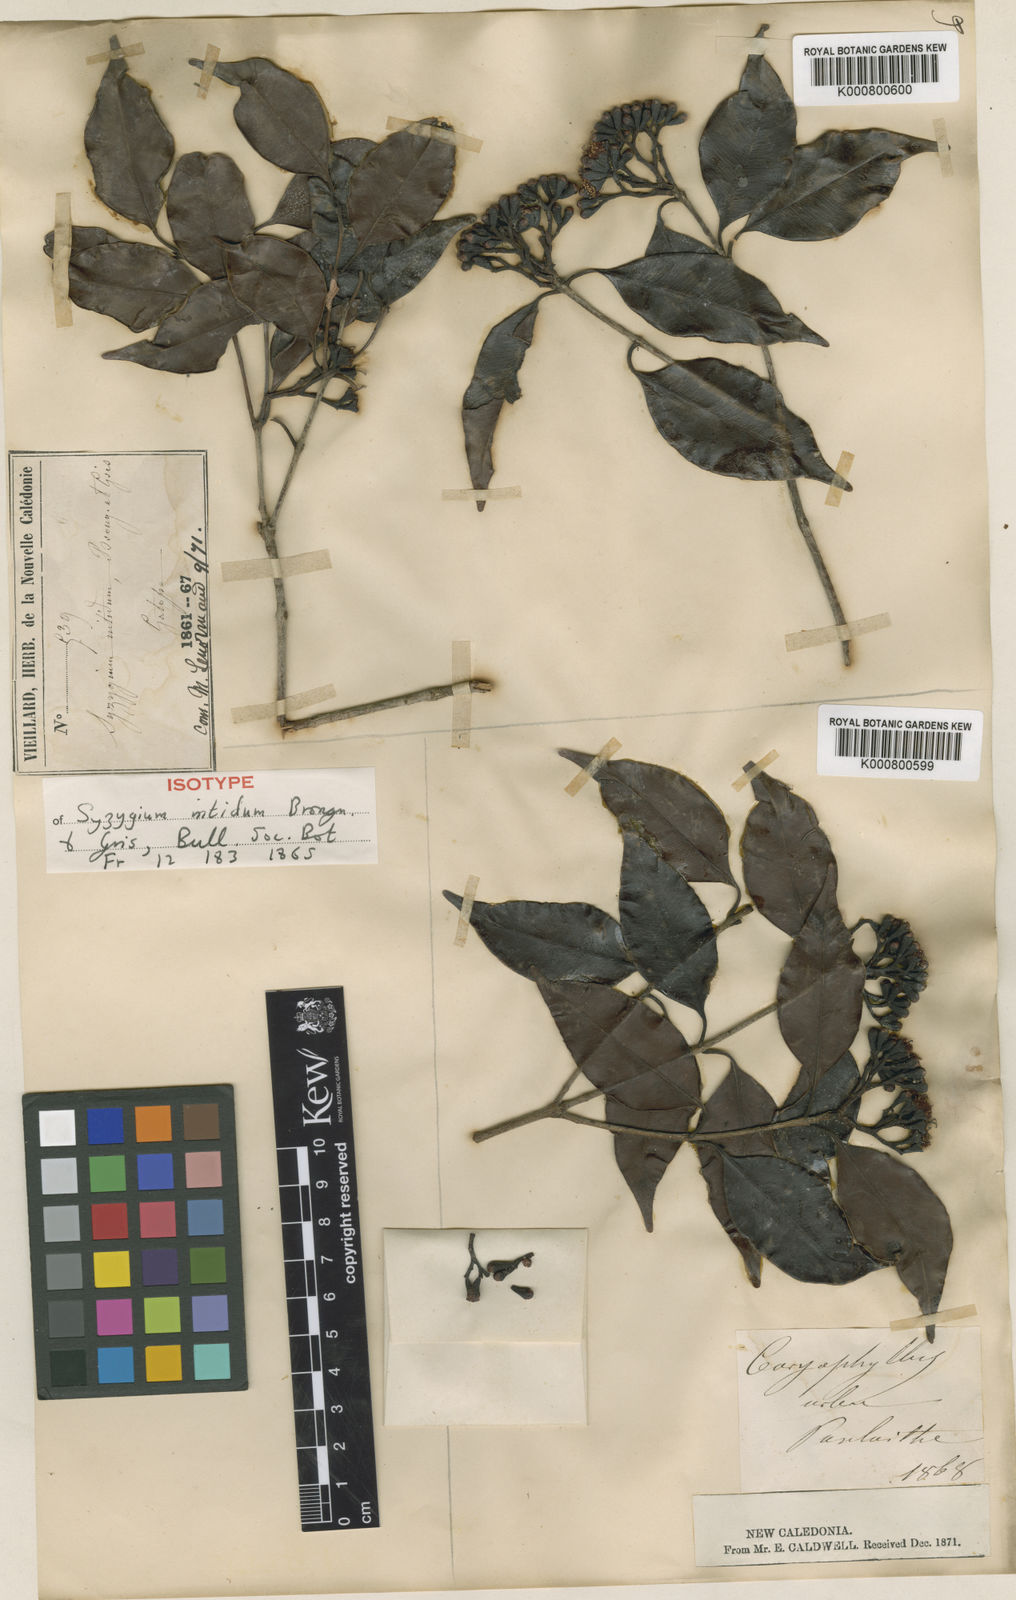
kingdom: Plantae
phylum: Tracheophyta
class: Magnoliopsida
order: Myrtales
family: Myrtaceae
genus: Syzygium
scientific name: Syzygium griseum
